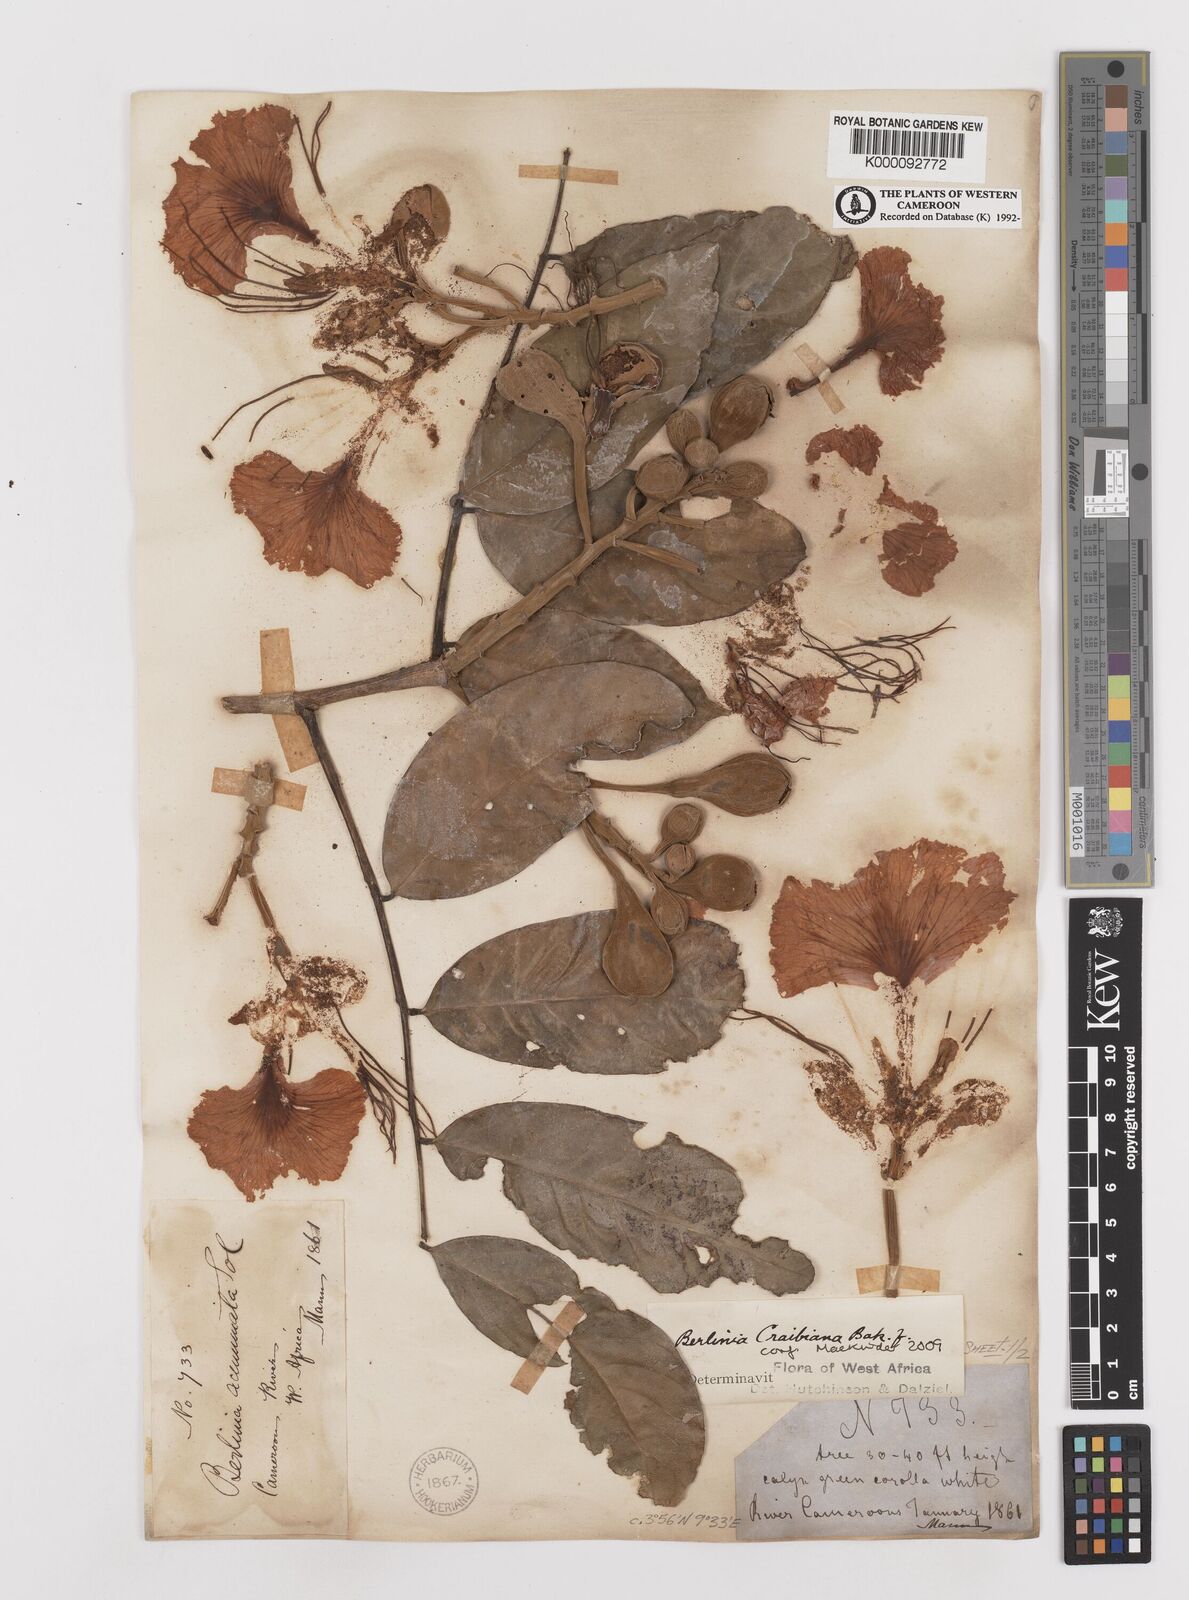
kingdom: Plantae
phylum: Tracheophyta
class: Magnoliopsida
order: Fabales
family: Fabaceae
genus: Berlinia
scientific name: Berlinia craibiana
